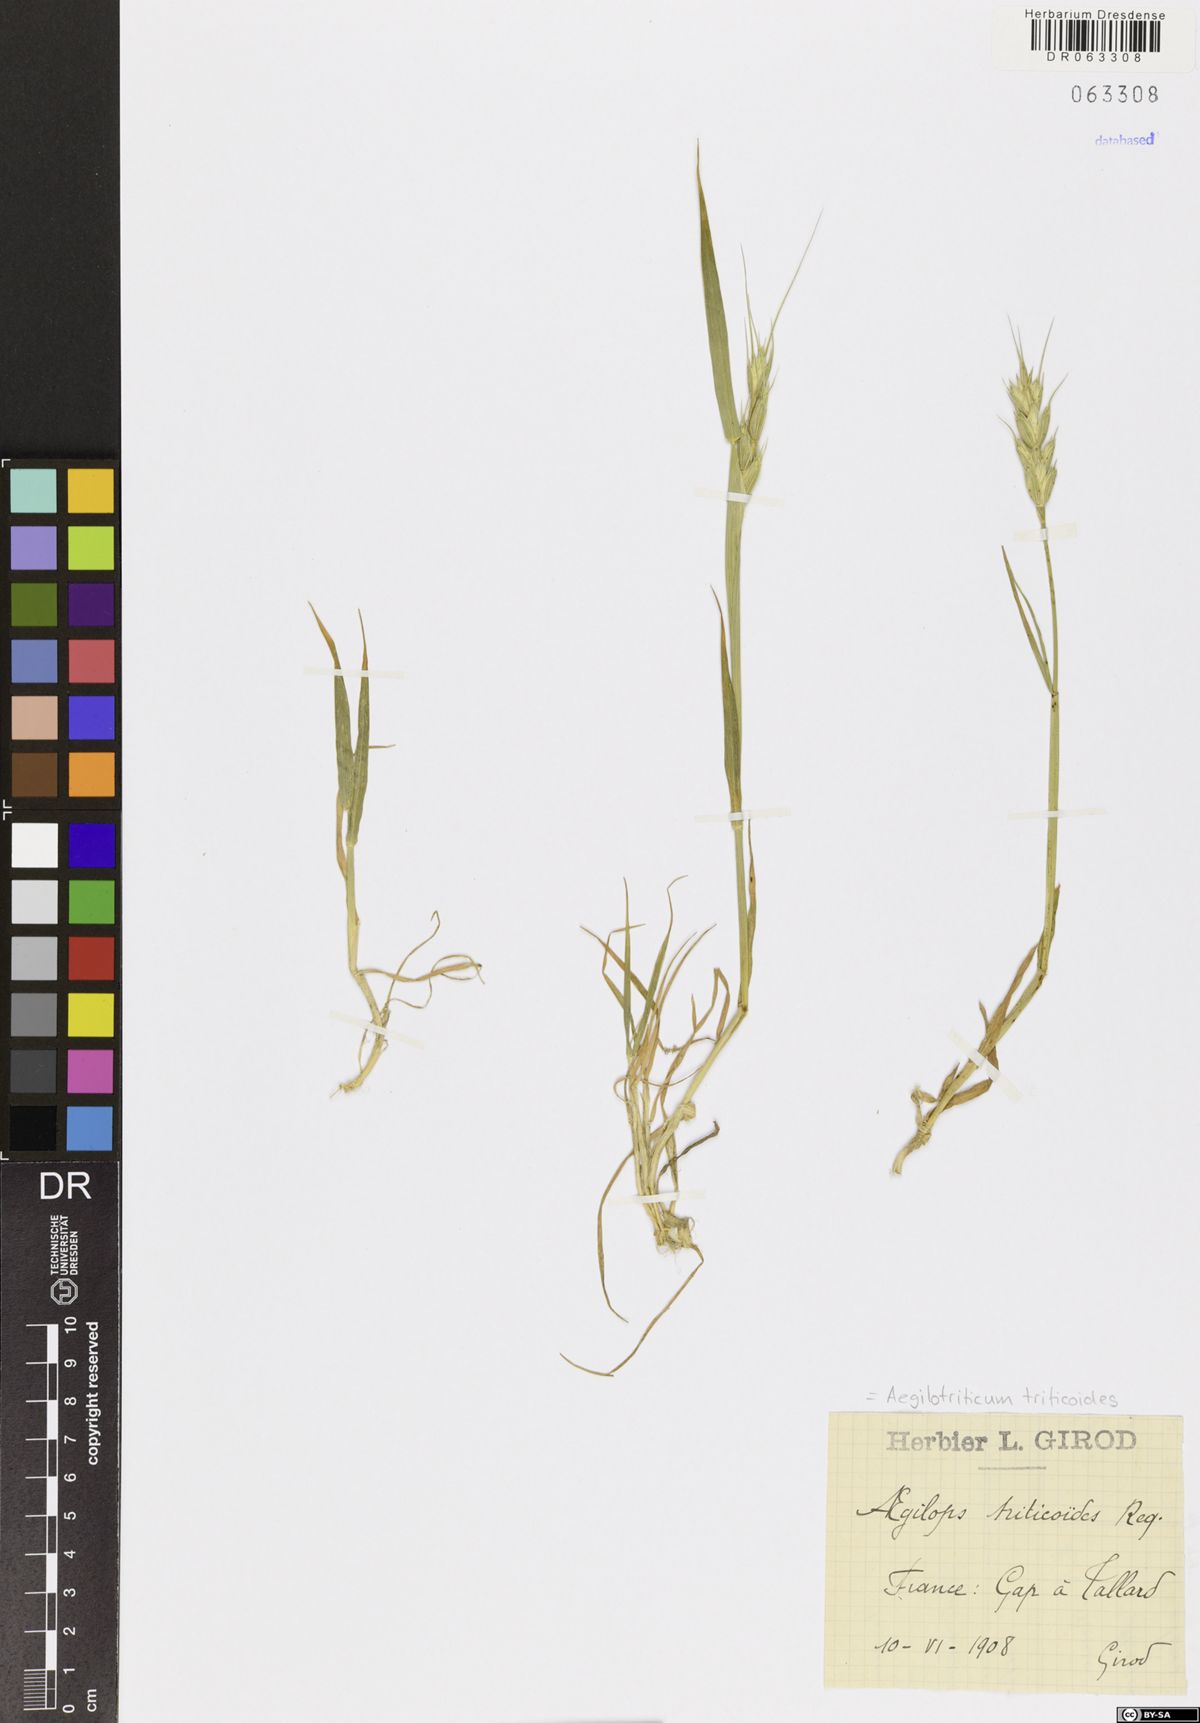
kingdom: Plantae
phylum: Tracheophyta
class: Liliopsida
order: Poales
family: Poaceae
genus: Aegilotriticum
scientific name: Aegilotriticum triticoides
